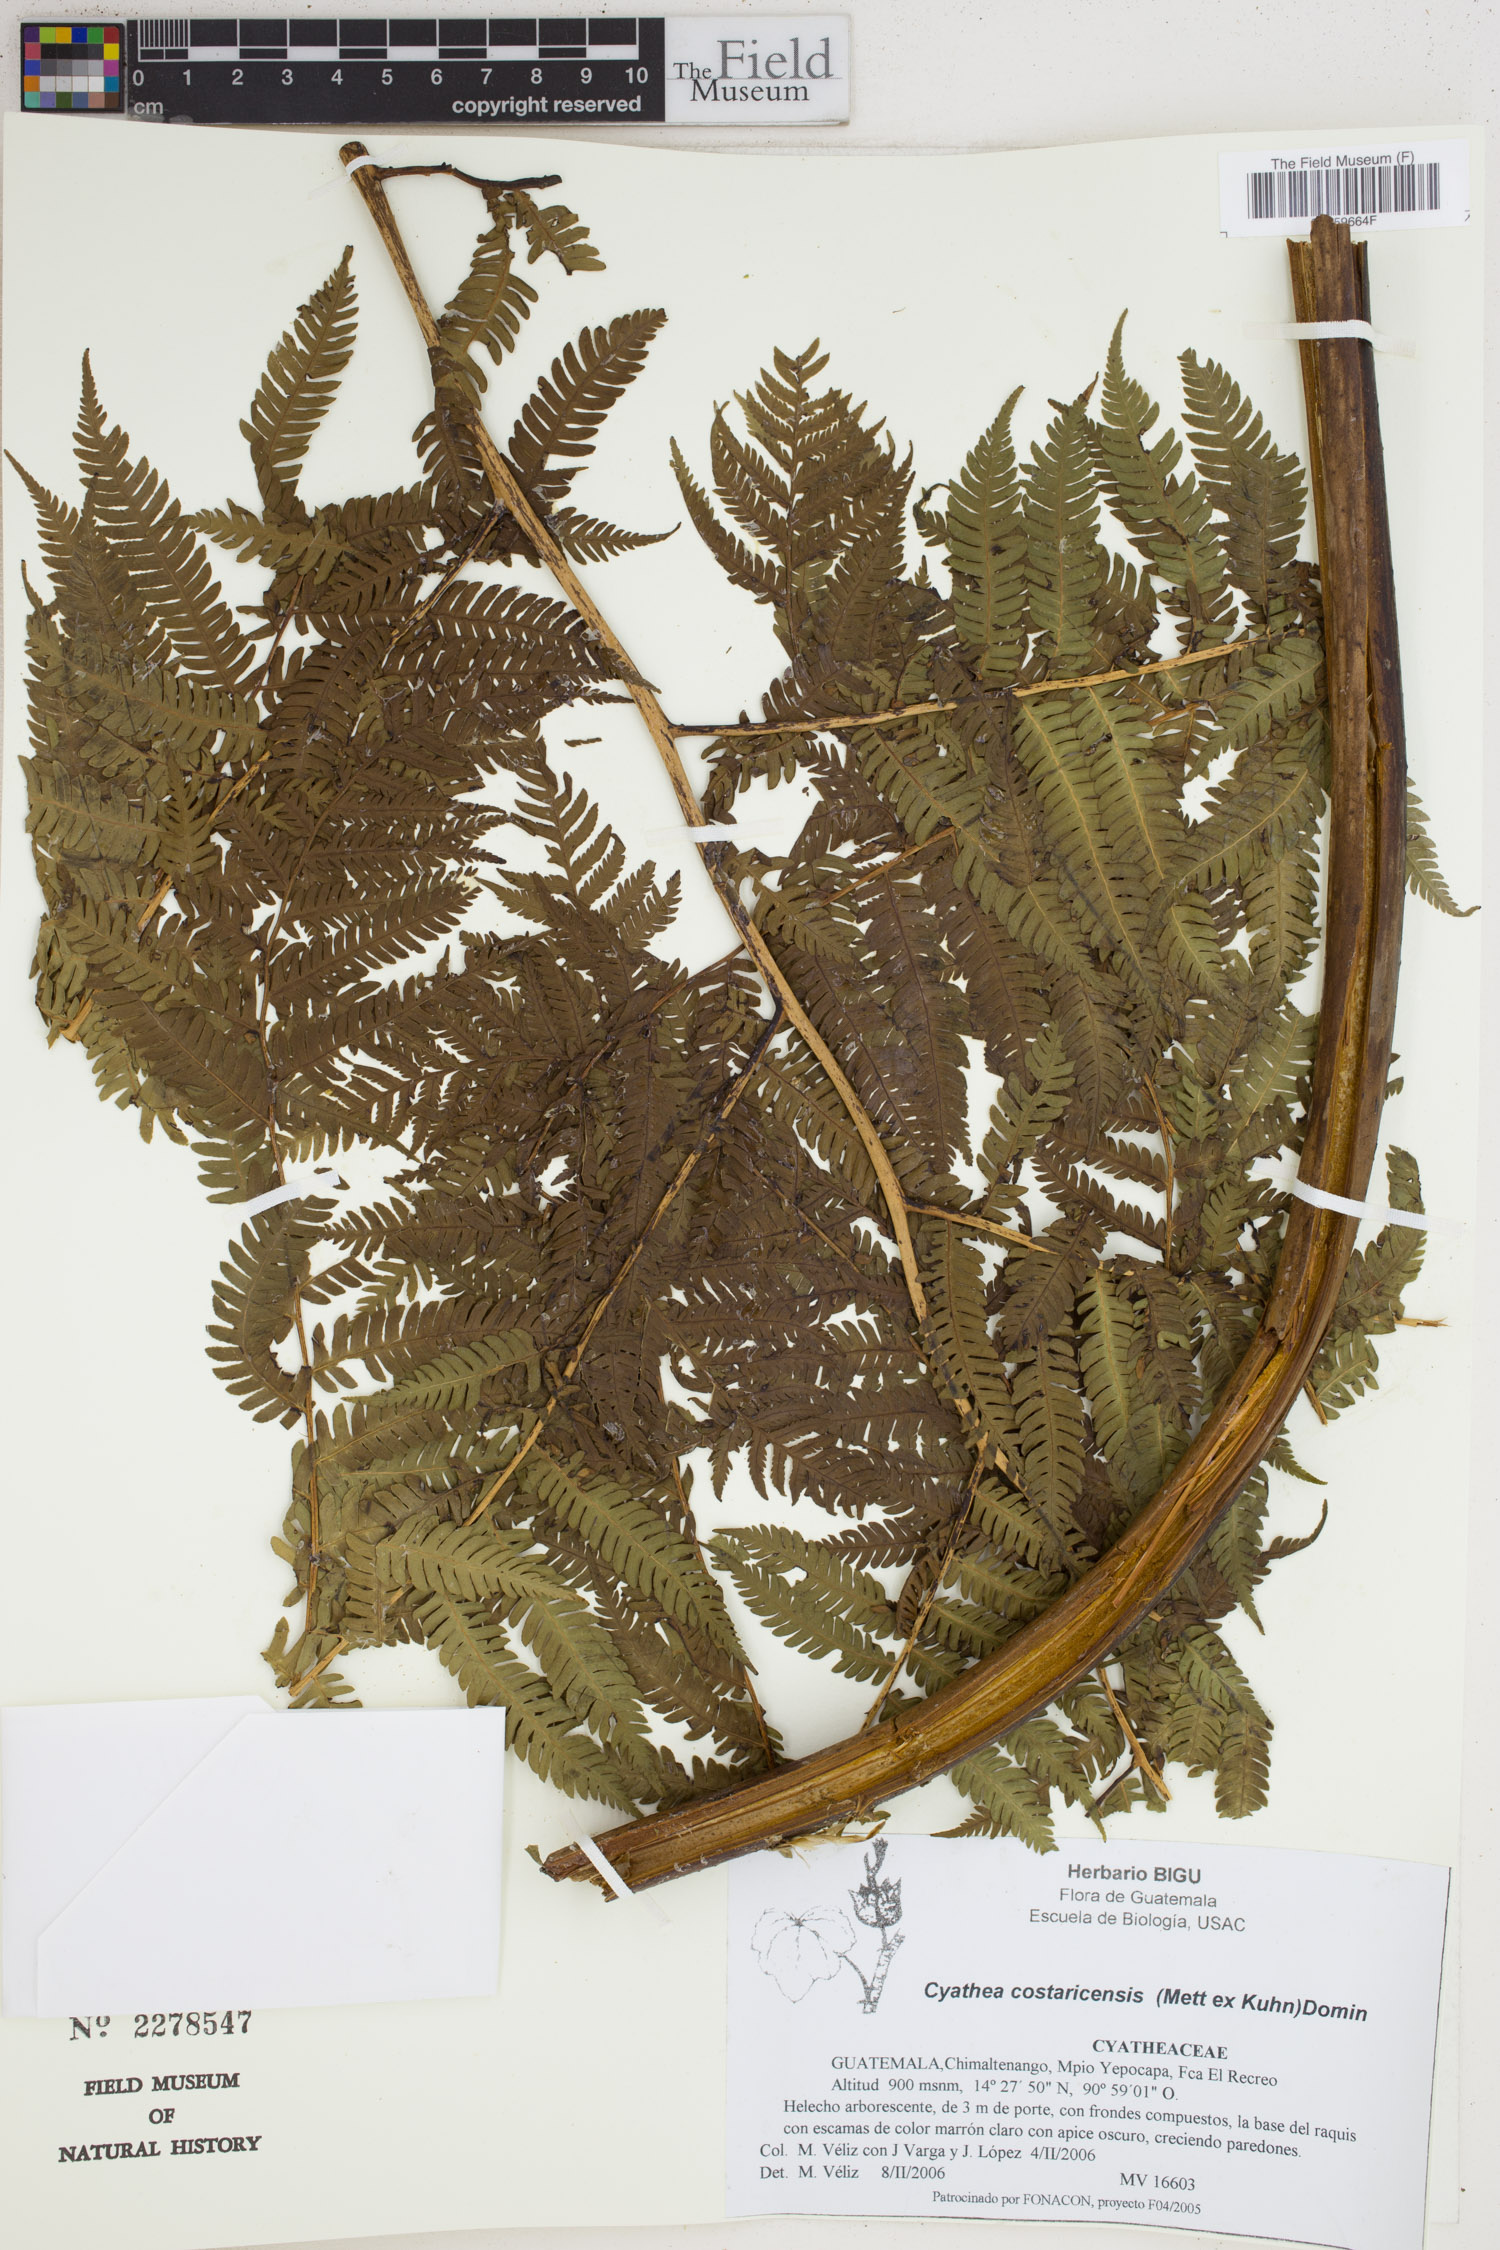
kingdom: Plantae
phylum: Tracheophyta
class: Polypodiopsida
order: Cyatheales
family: Cyatheaceae
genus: Cyathea
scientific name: Cyathea costaricensis
